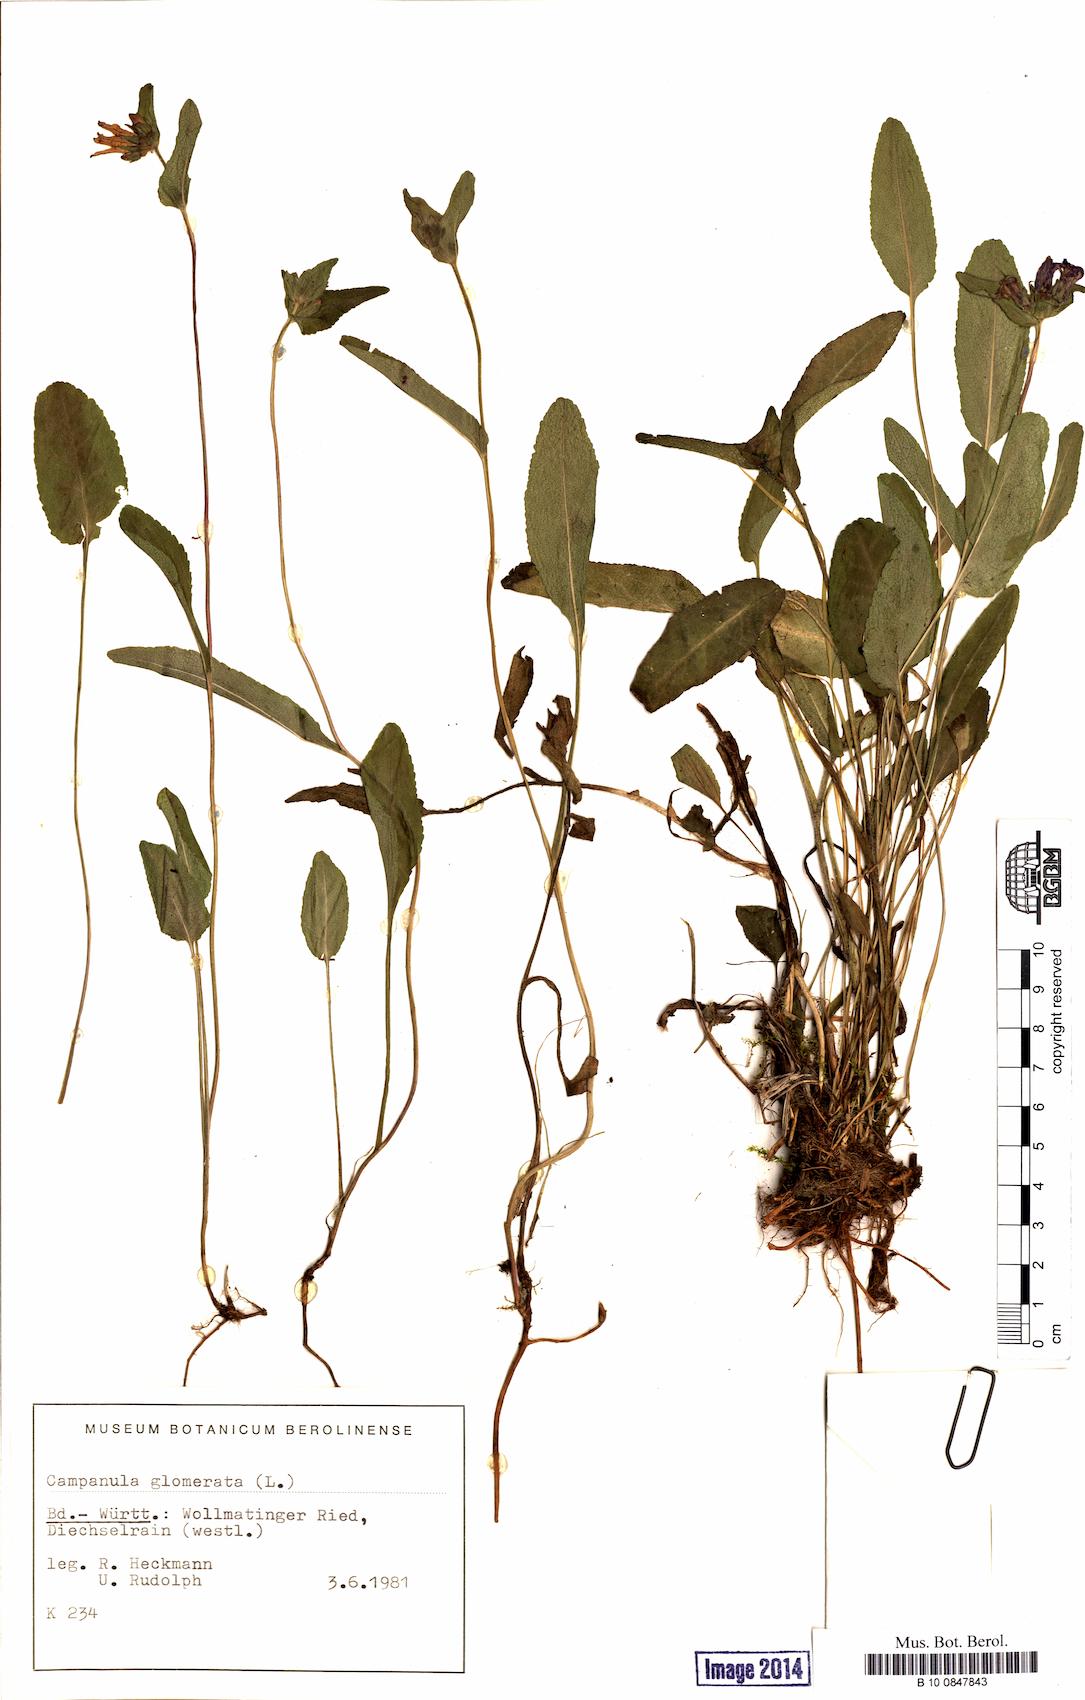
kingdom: Plantae
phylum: Tracheophyta
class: Magnoliopsida
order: Asterales
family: Campanulaceae
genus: Campanula
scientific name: Campanula glomerata
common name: Clustered bellflower
